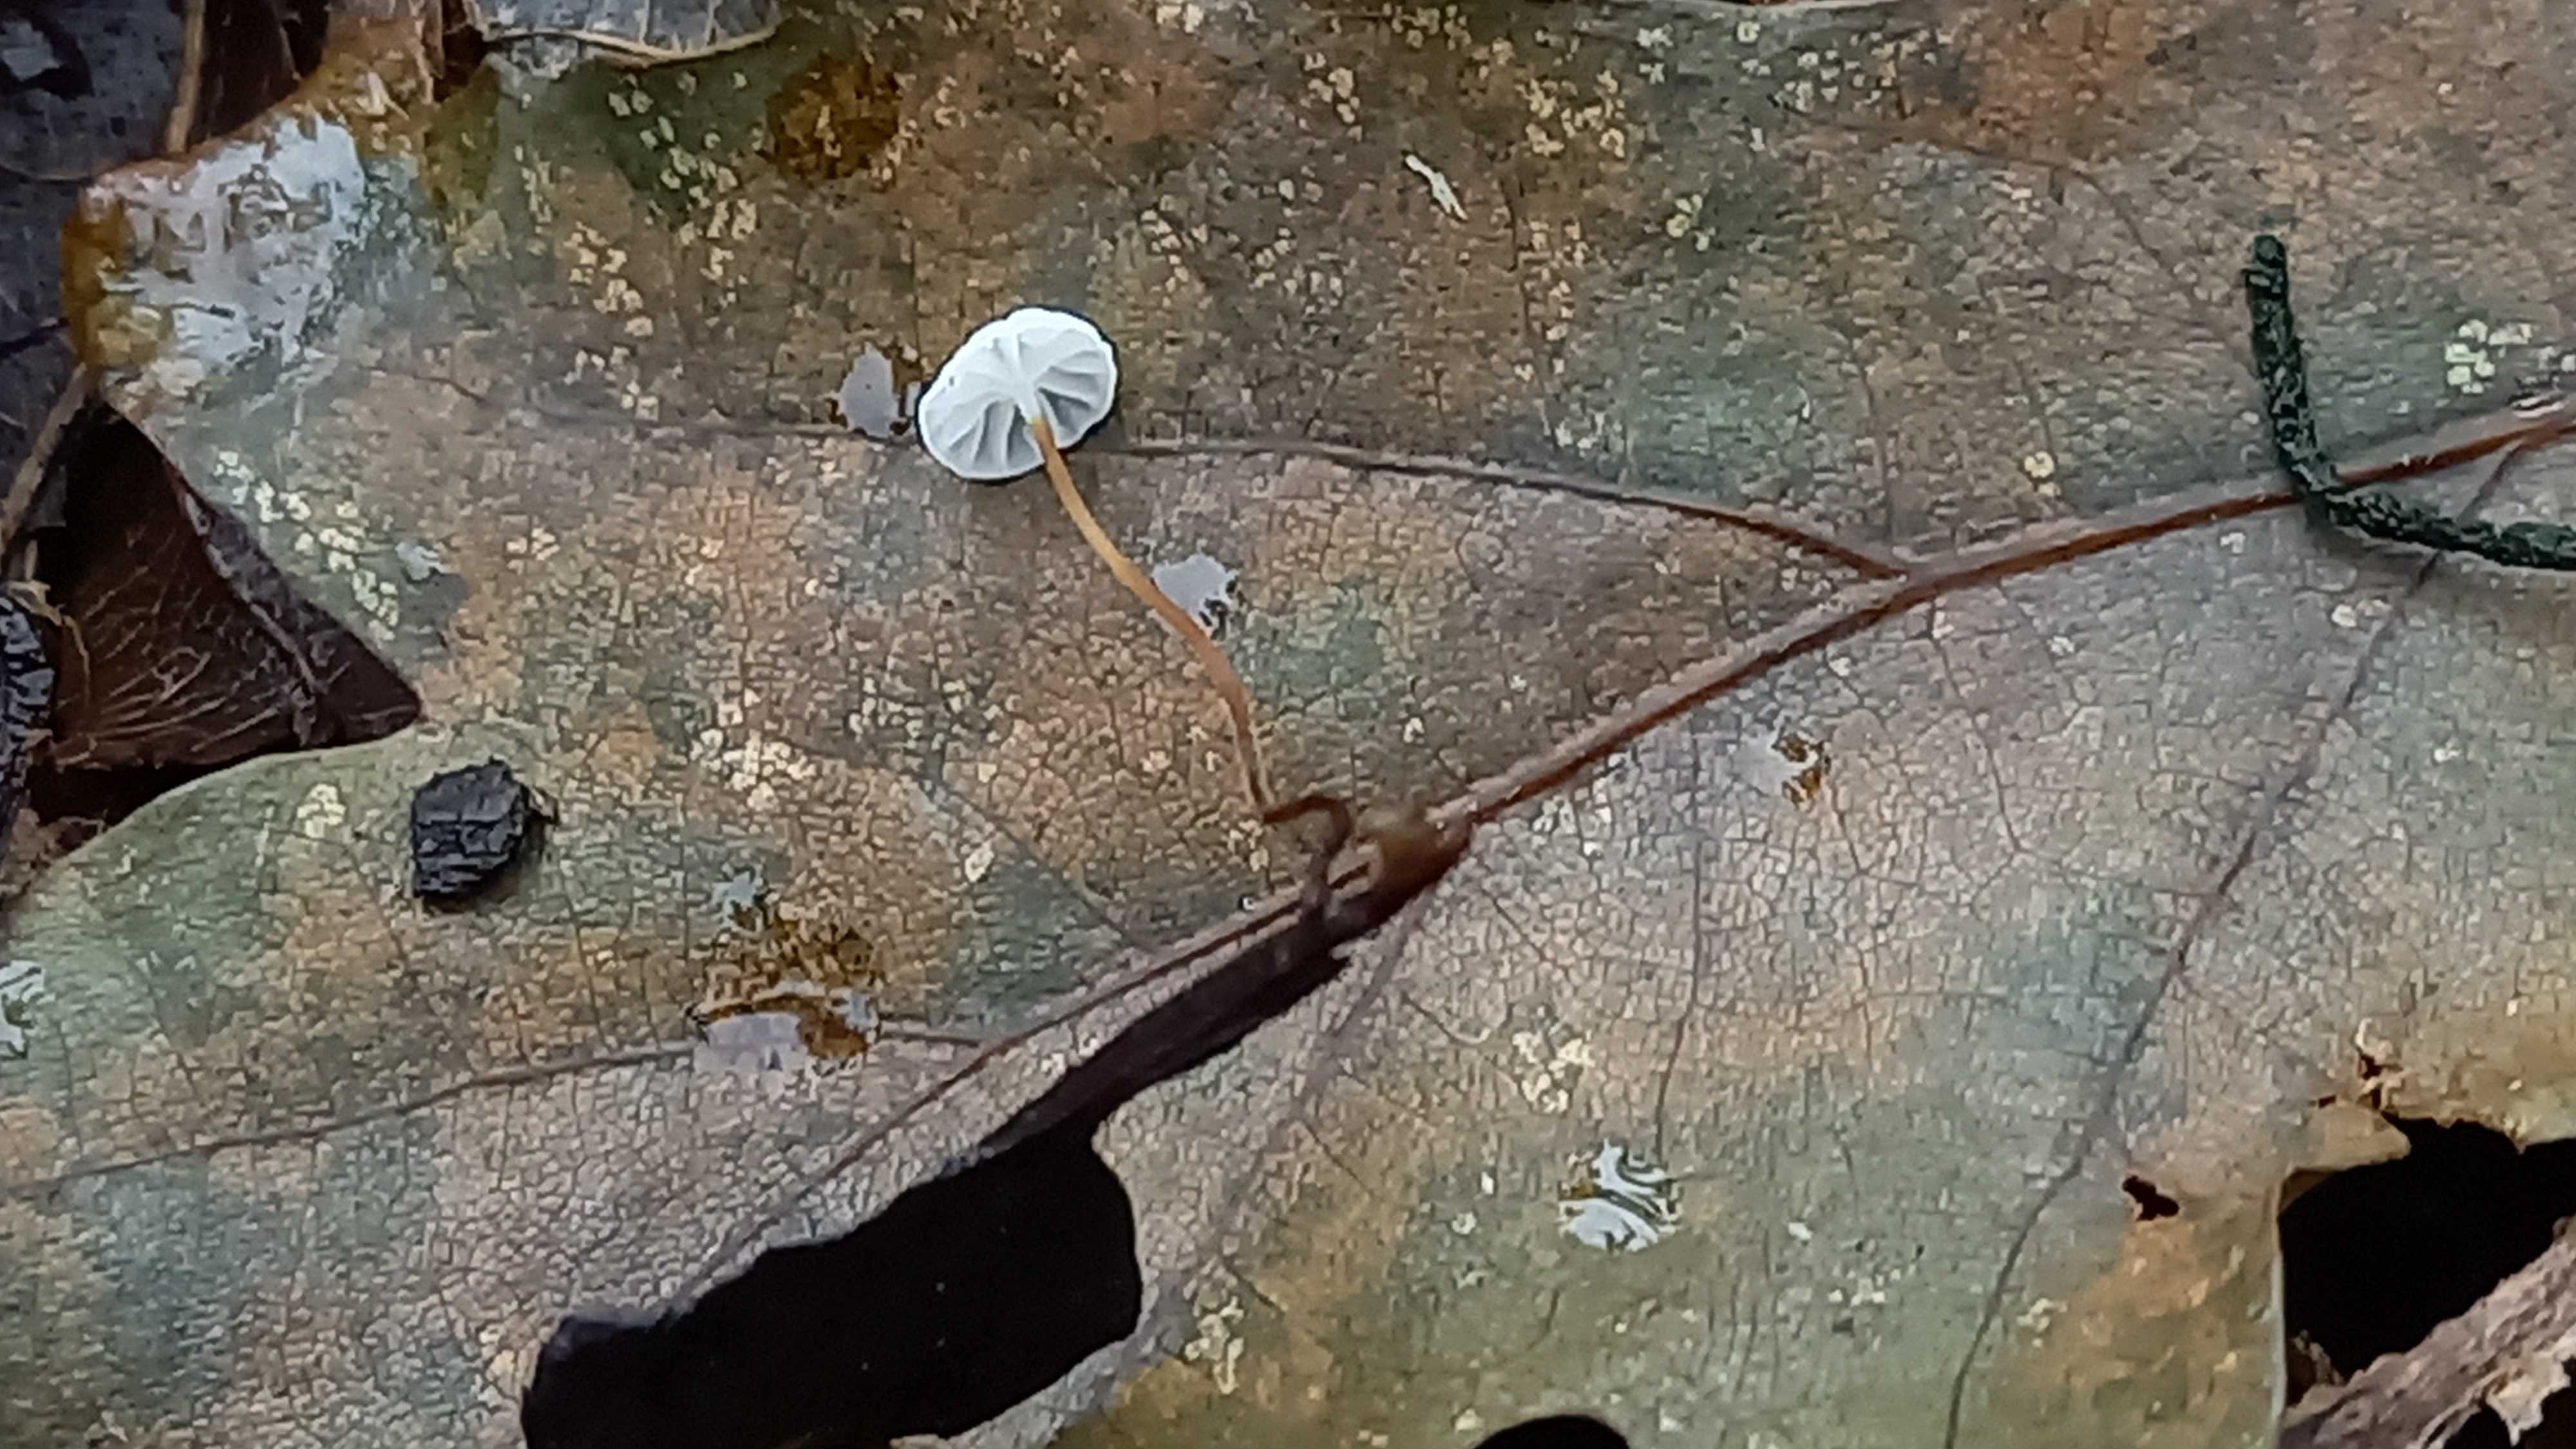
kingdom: Fungi
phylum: Basidiomycota
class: Agaricomycetes
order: Agaricales
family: Physalacriaceae
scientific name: Physalacriaceae
